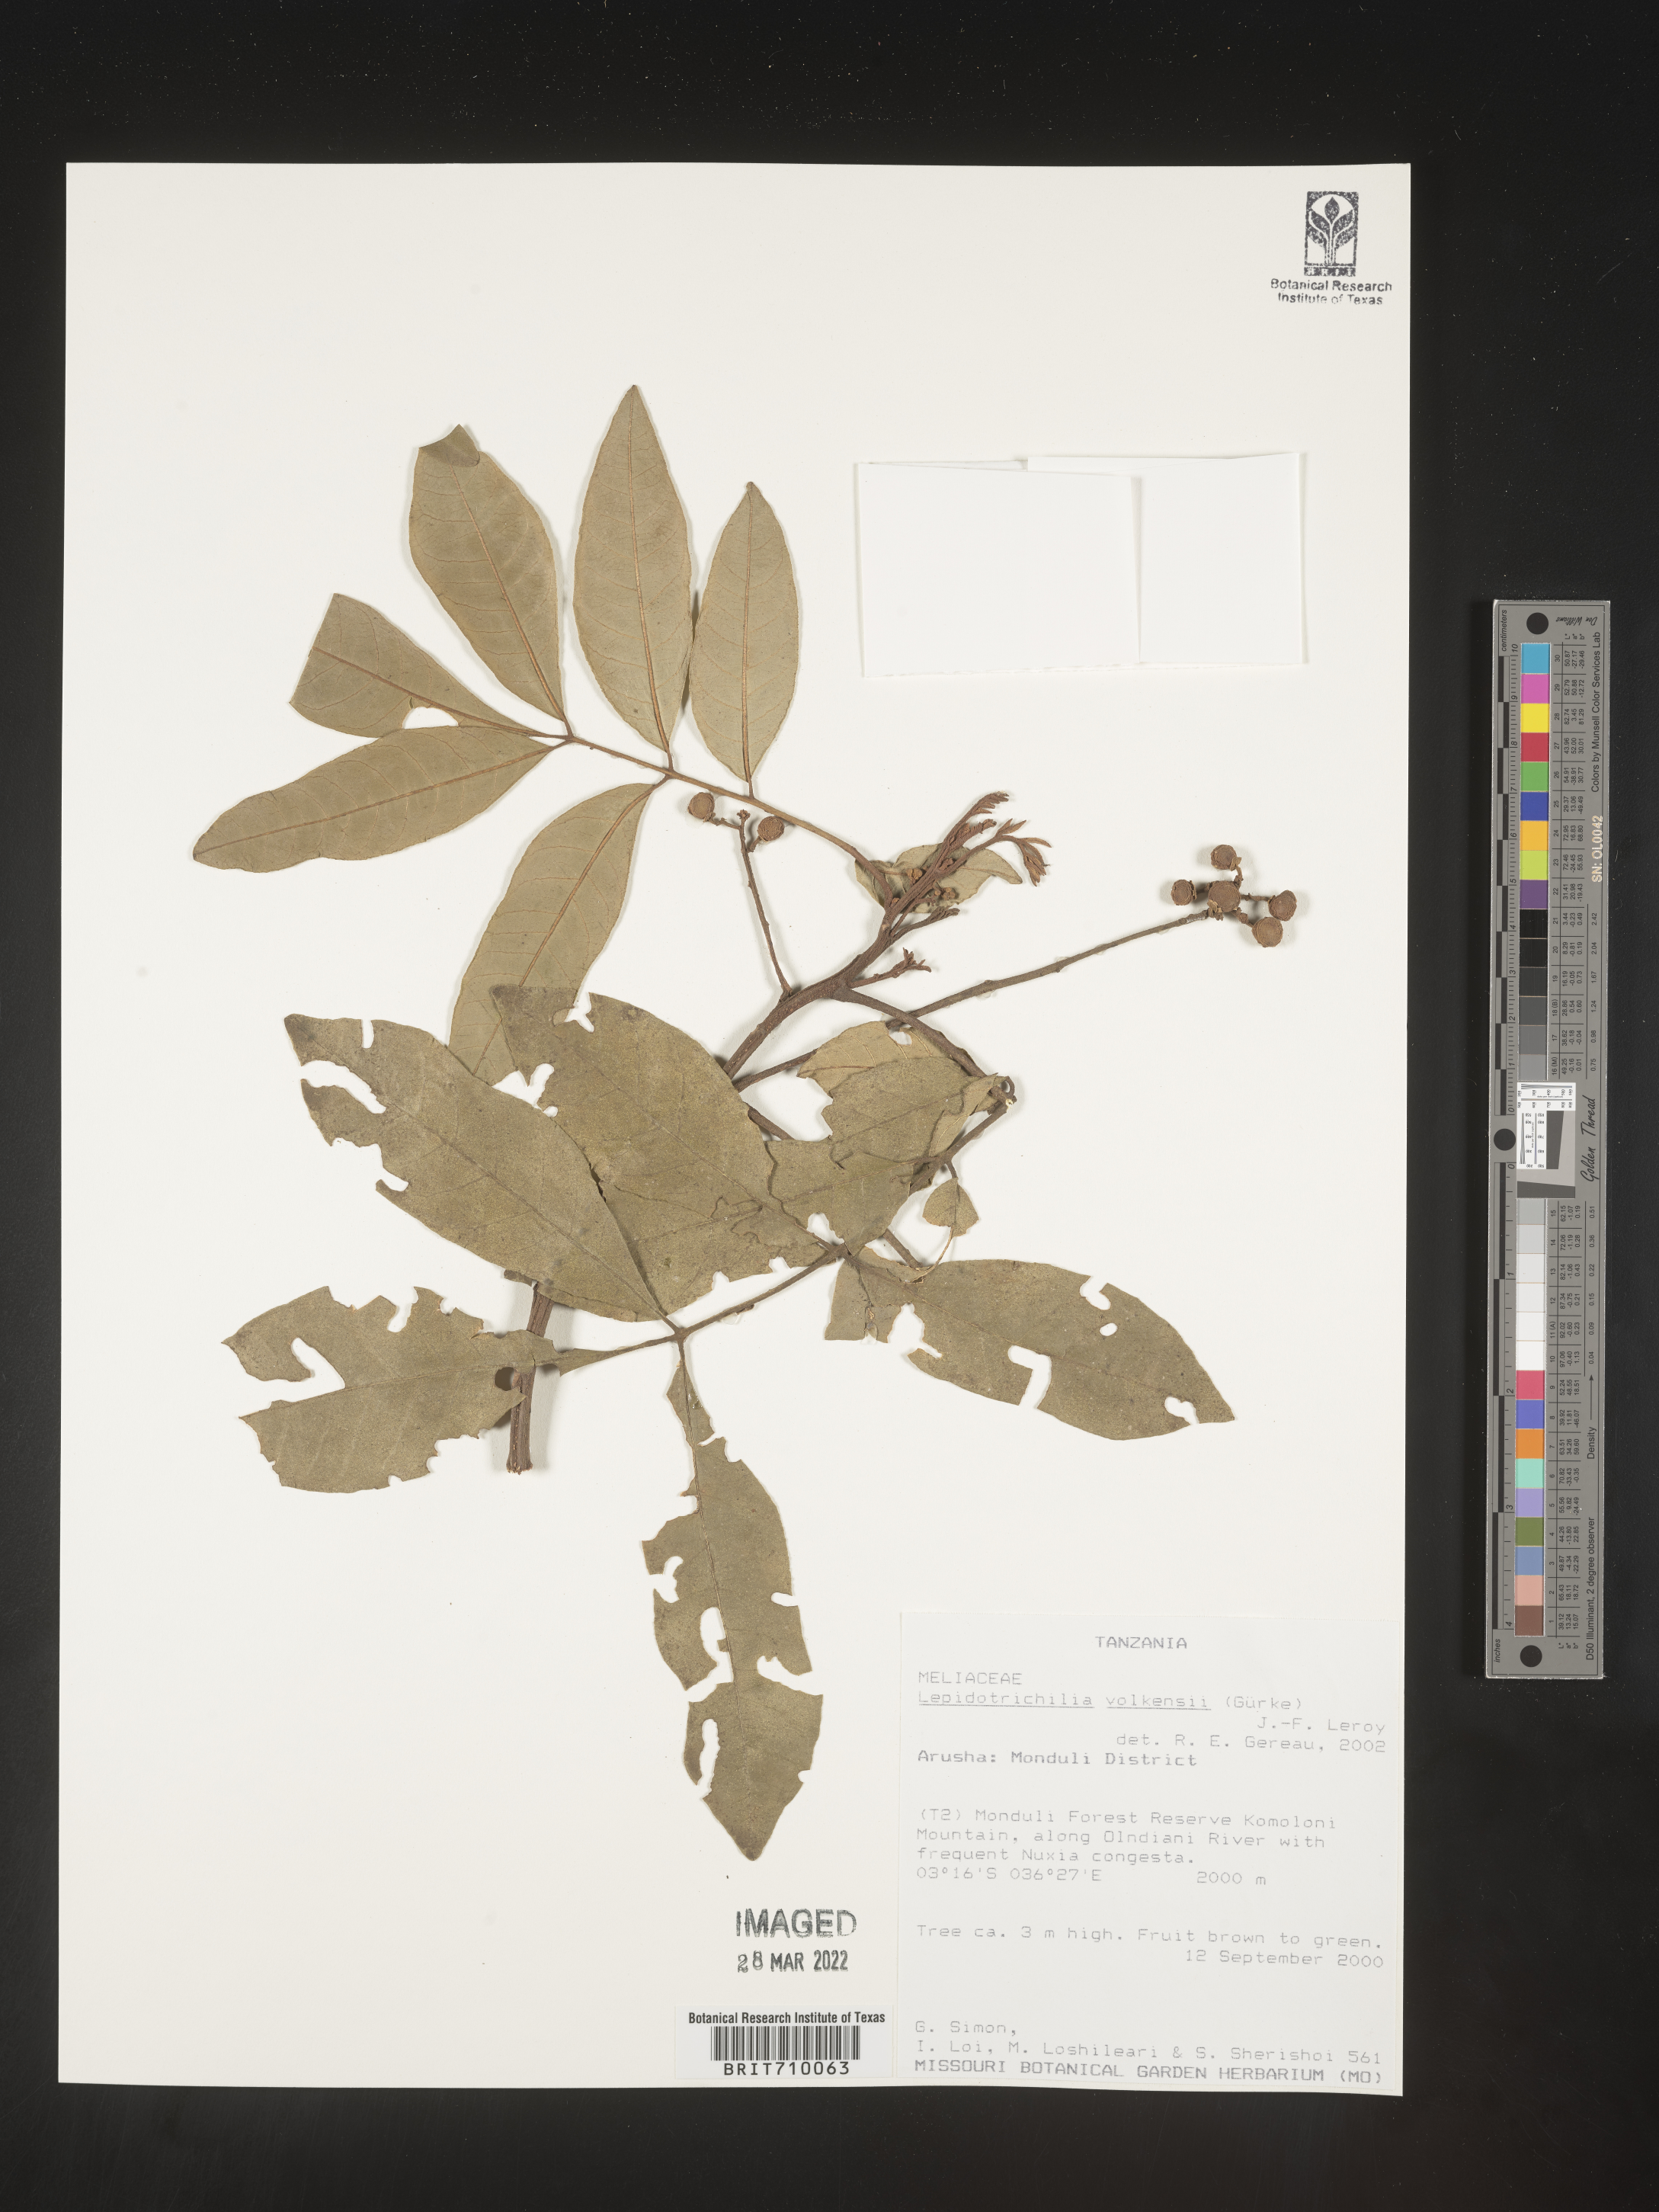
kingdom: Plantae
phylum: Tracheophyta
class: Magnoliopsida
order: Sapindales
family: Meliaceae
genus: Lepidotrichilia
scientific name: Lepidotrichilia
